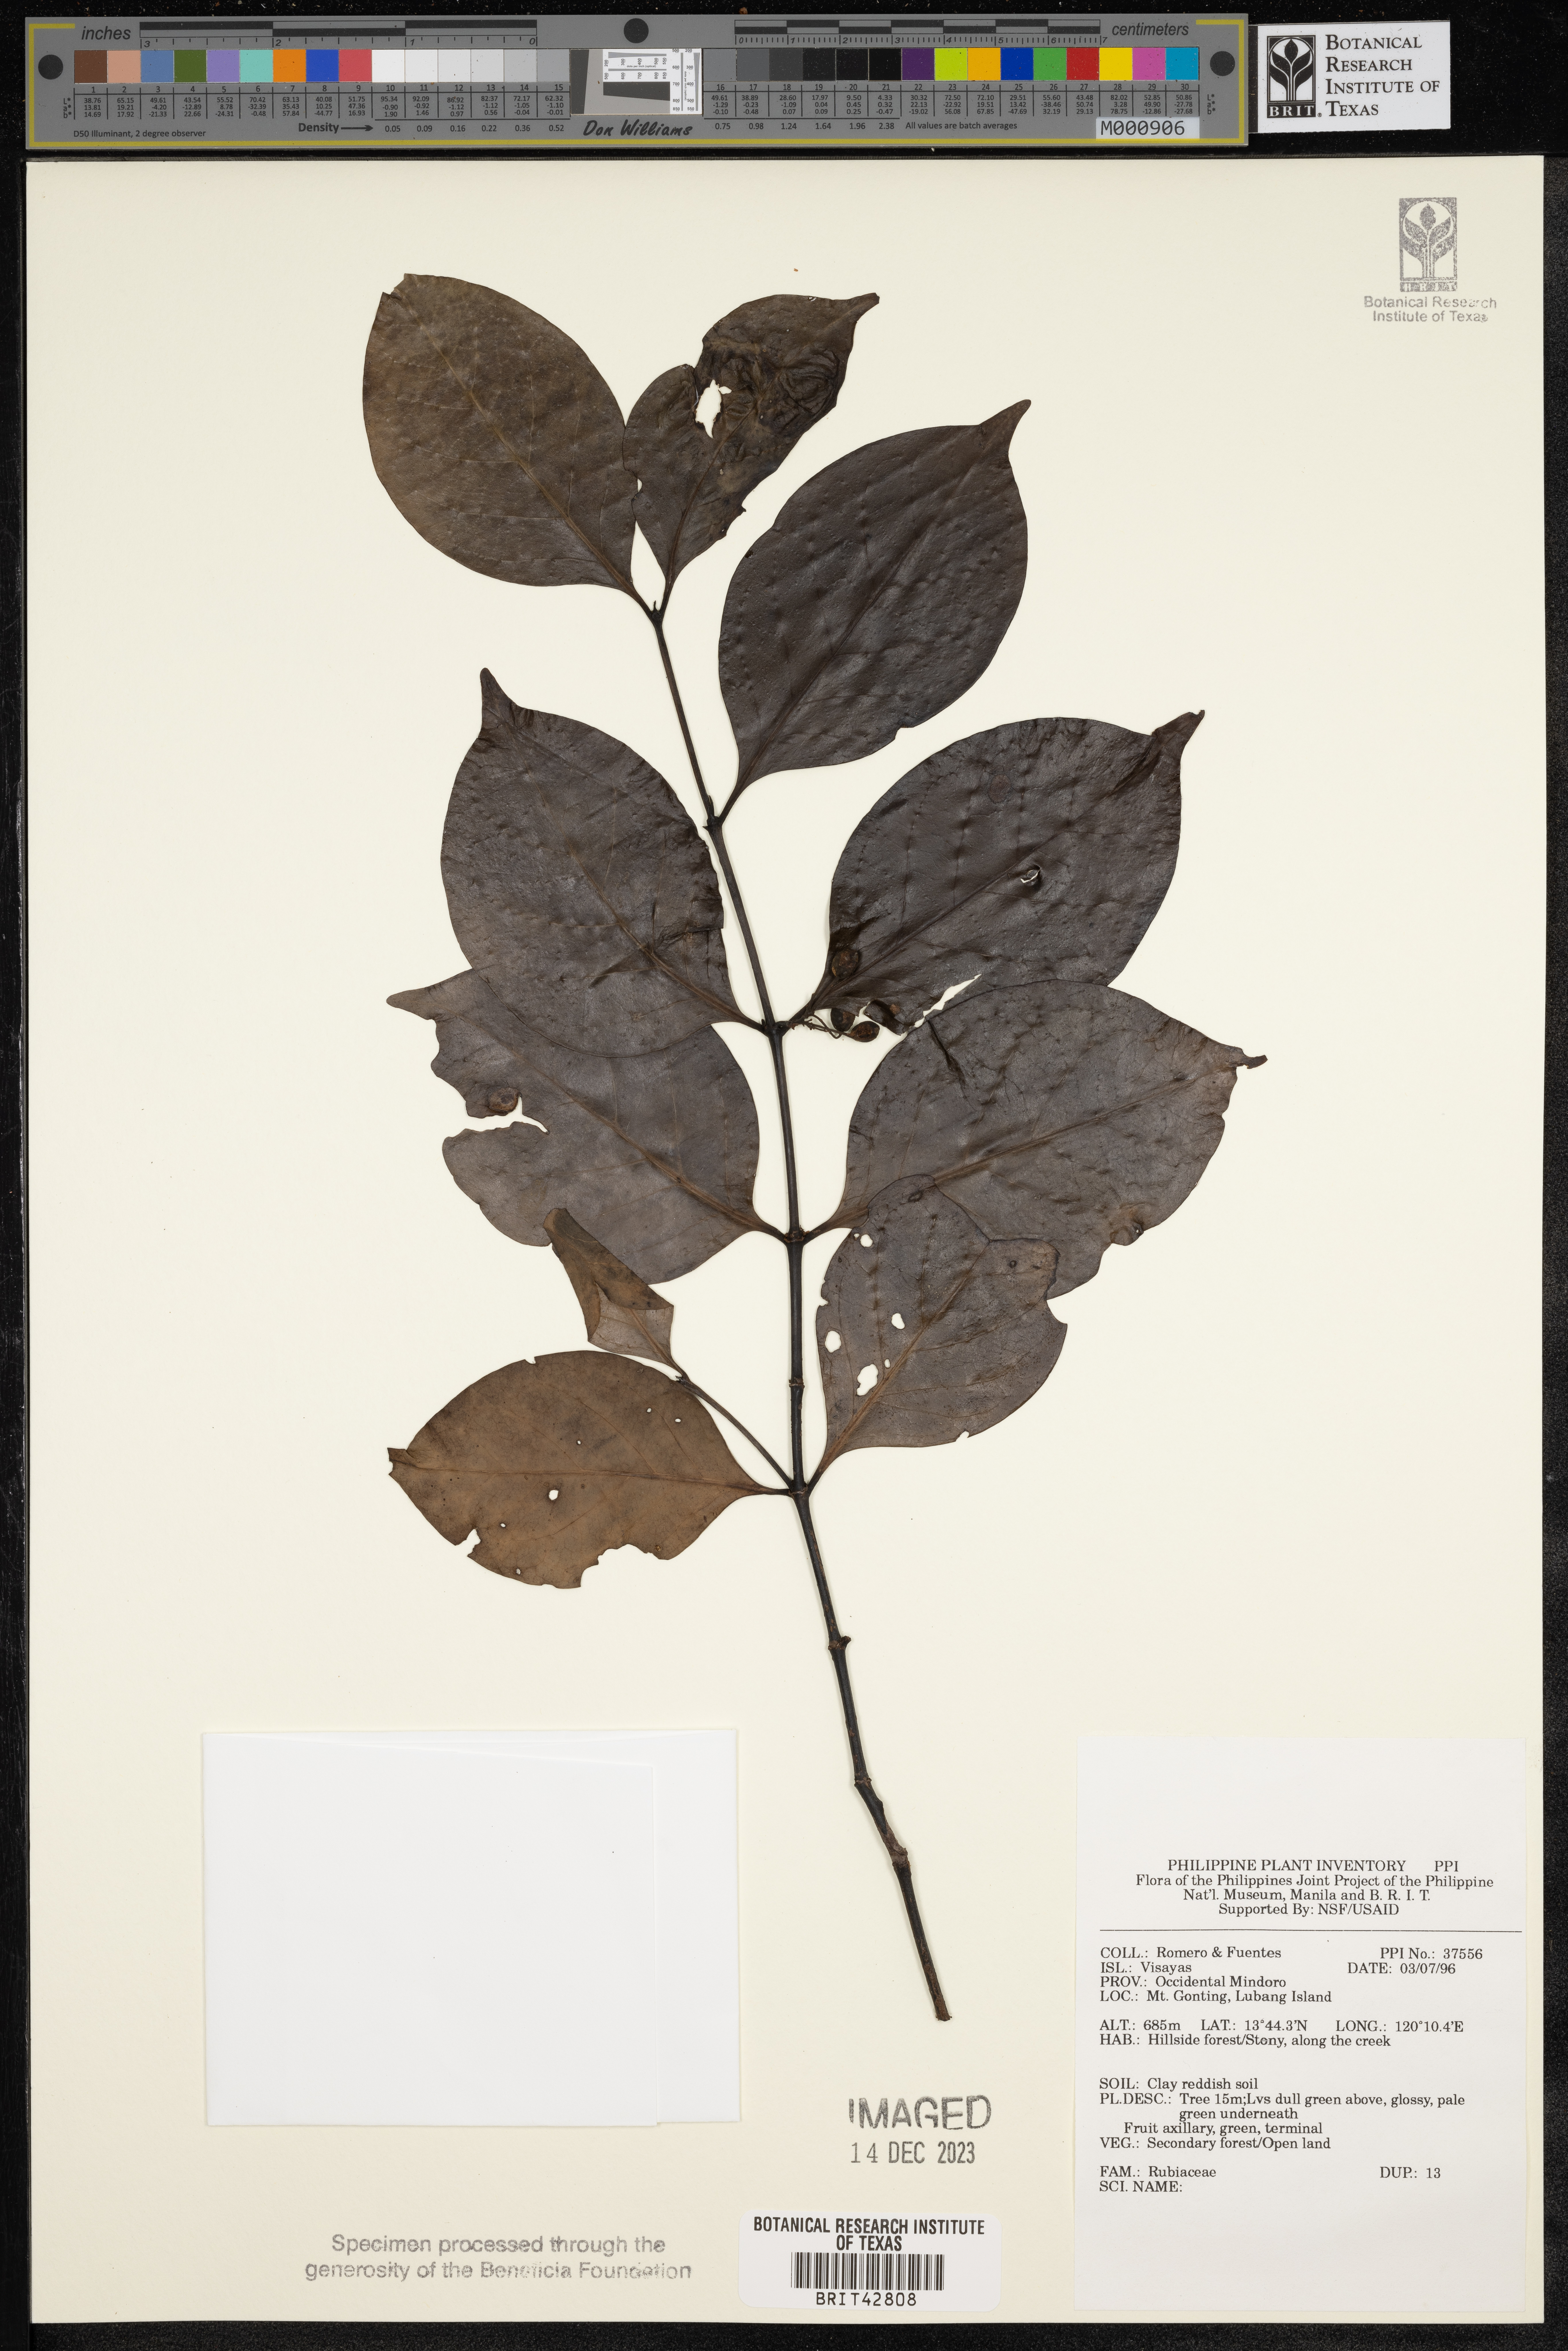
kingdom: Plantae
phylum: Tracheophyta
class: Magnoliopsida
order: Gentianales
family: Rubiaceae
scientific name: Rubiaceae
